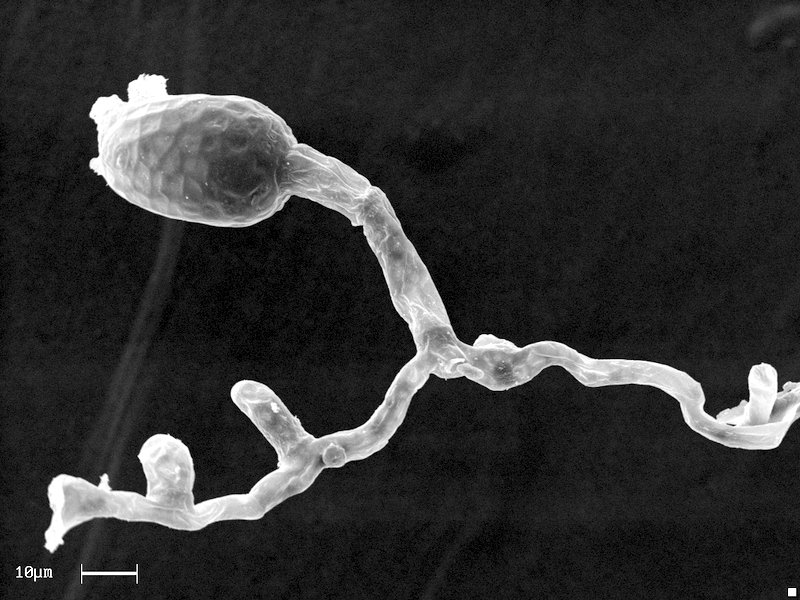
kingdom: Fungi
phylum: Ascomycota
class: Dothideomycetes
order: Pleosporales
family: Phaeosphaeriaceae
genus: Ampelomyces
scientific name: Ampelomyces quisqualis
